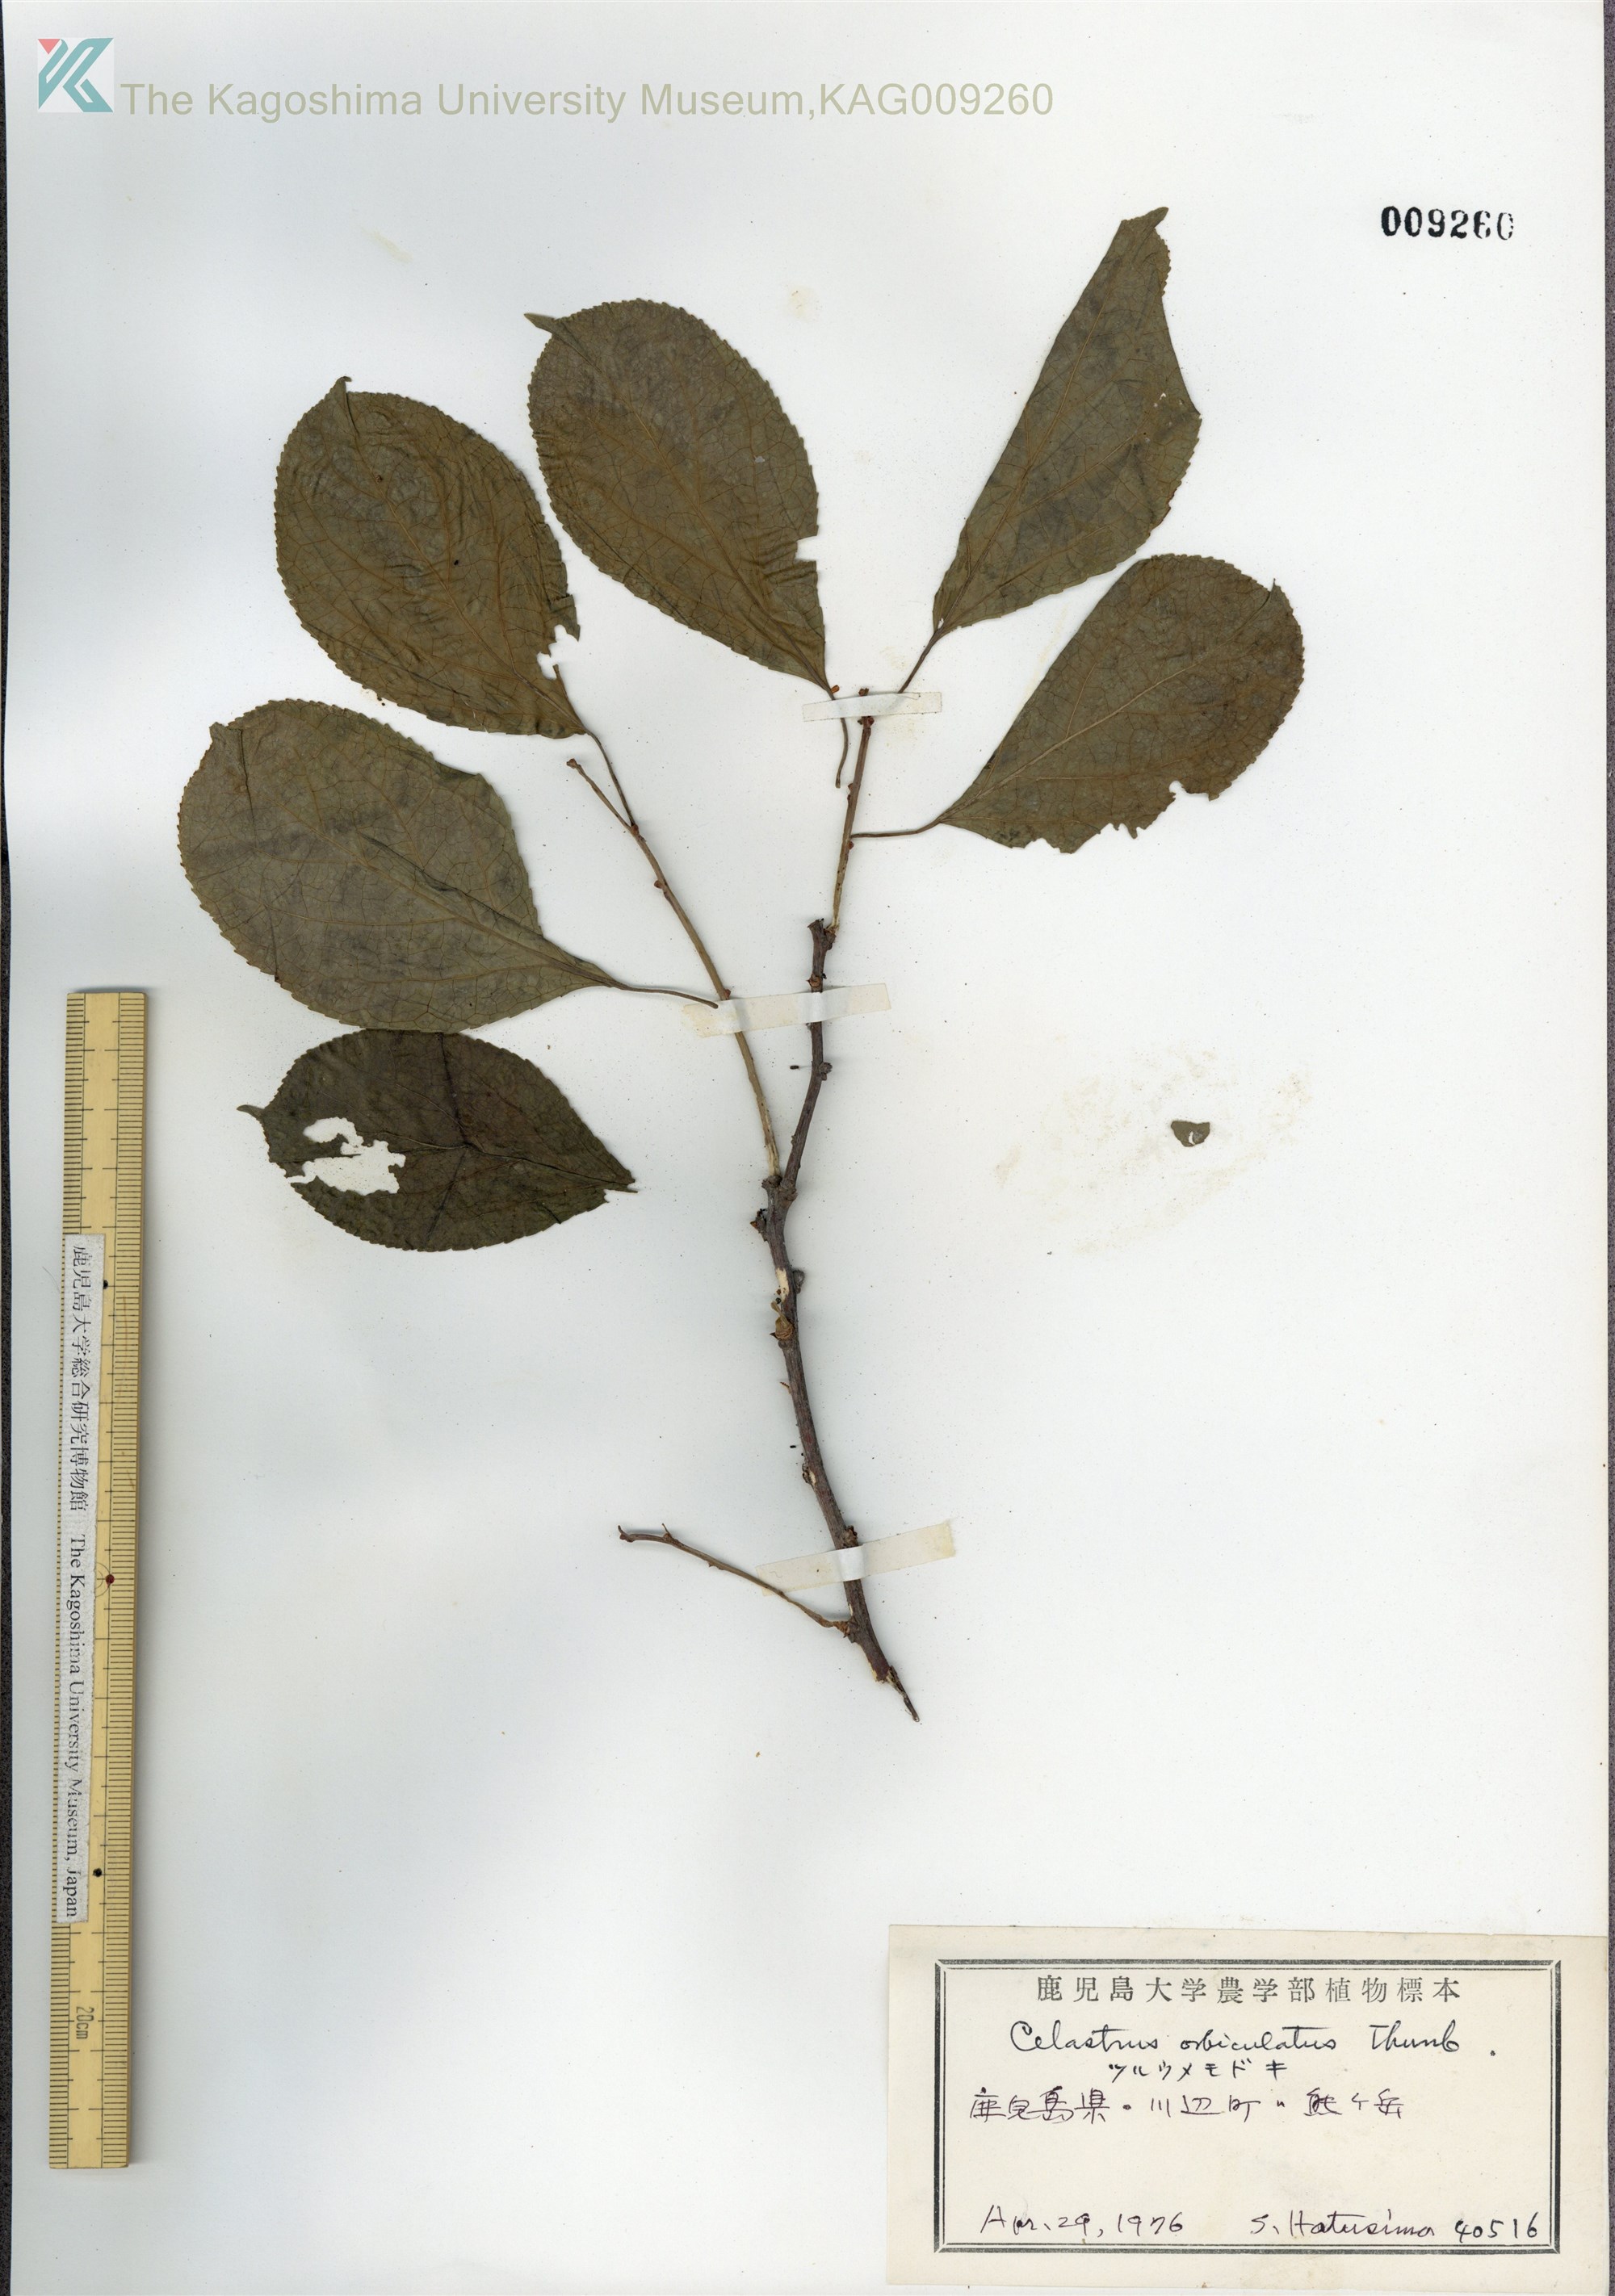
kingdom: Plantae
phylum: Tracheophyta
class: Magnoliopsida
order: Celastrales
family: Celastraceae
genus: Celastrus
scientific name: Celastrus orbiculatus
